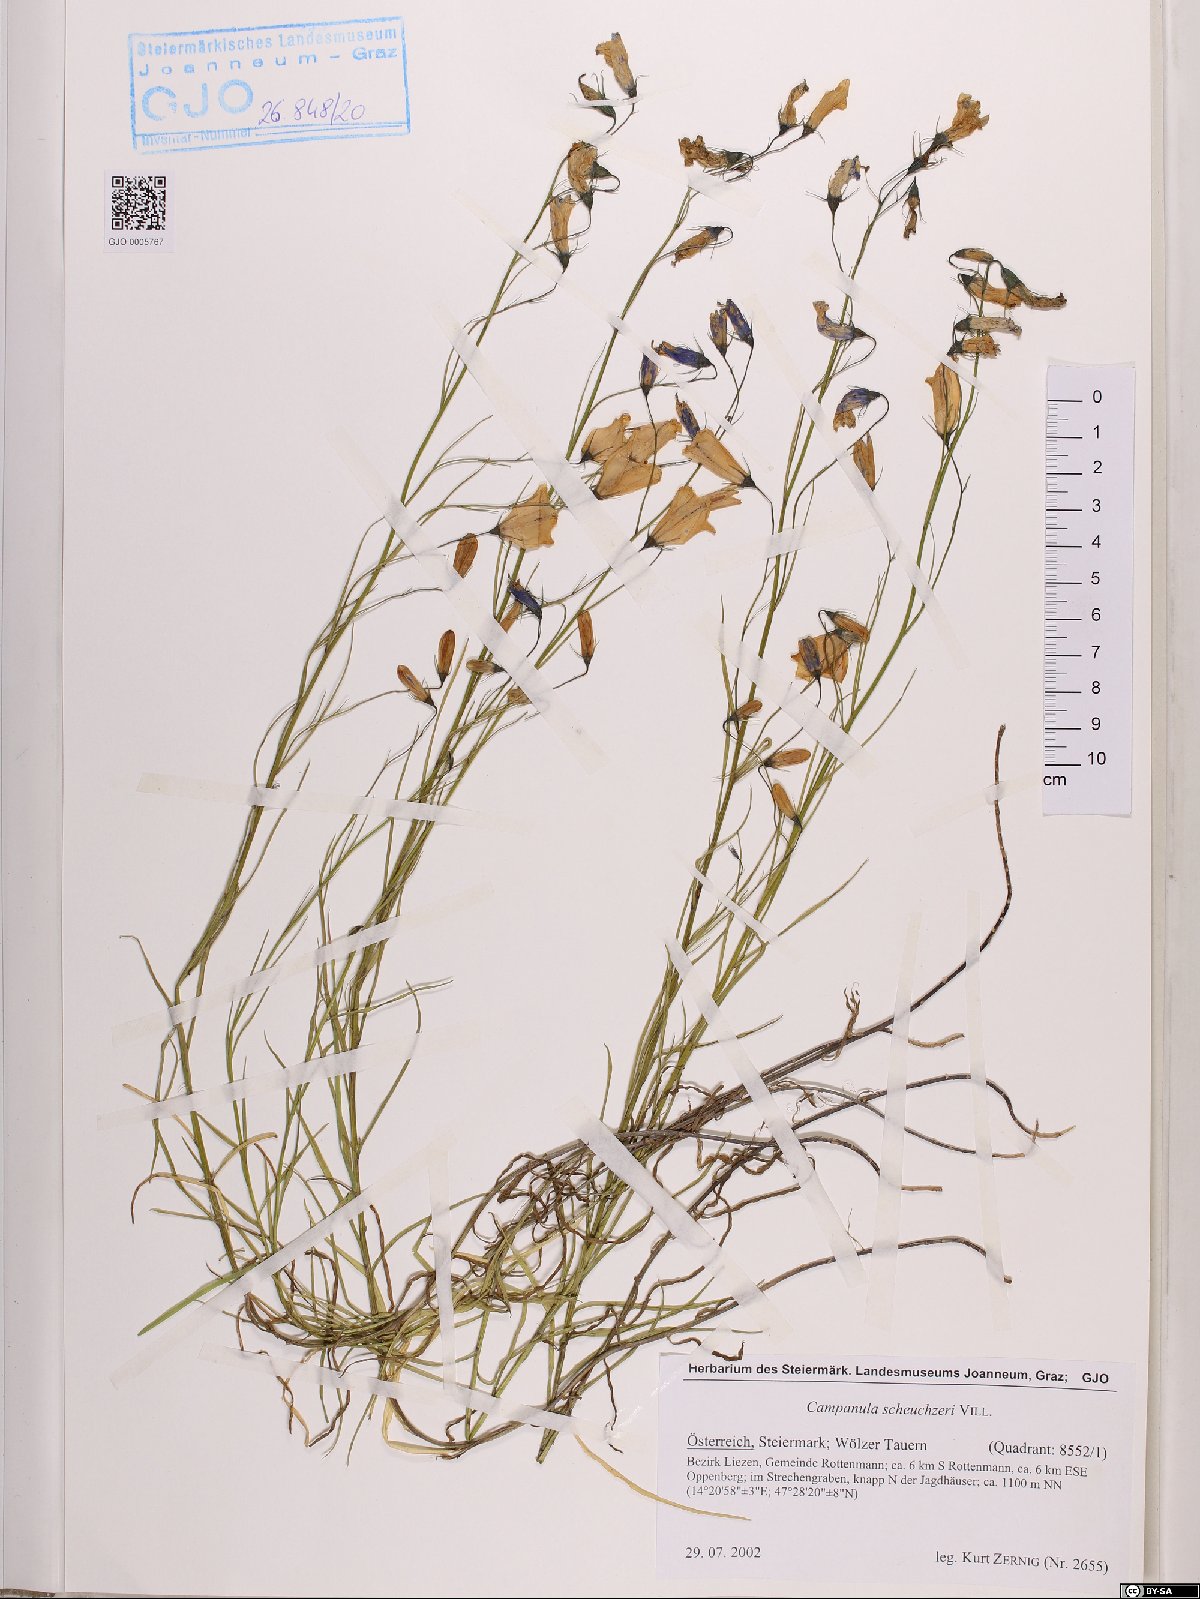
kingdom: Plantae
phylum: Tracheophyta
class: Magnoliopsida
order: Asterales
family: Campanulaceae
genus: Campanula
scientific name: Campanula scheuchzeri
